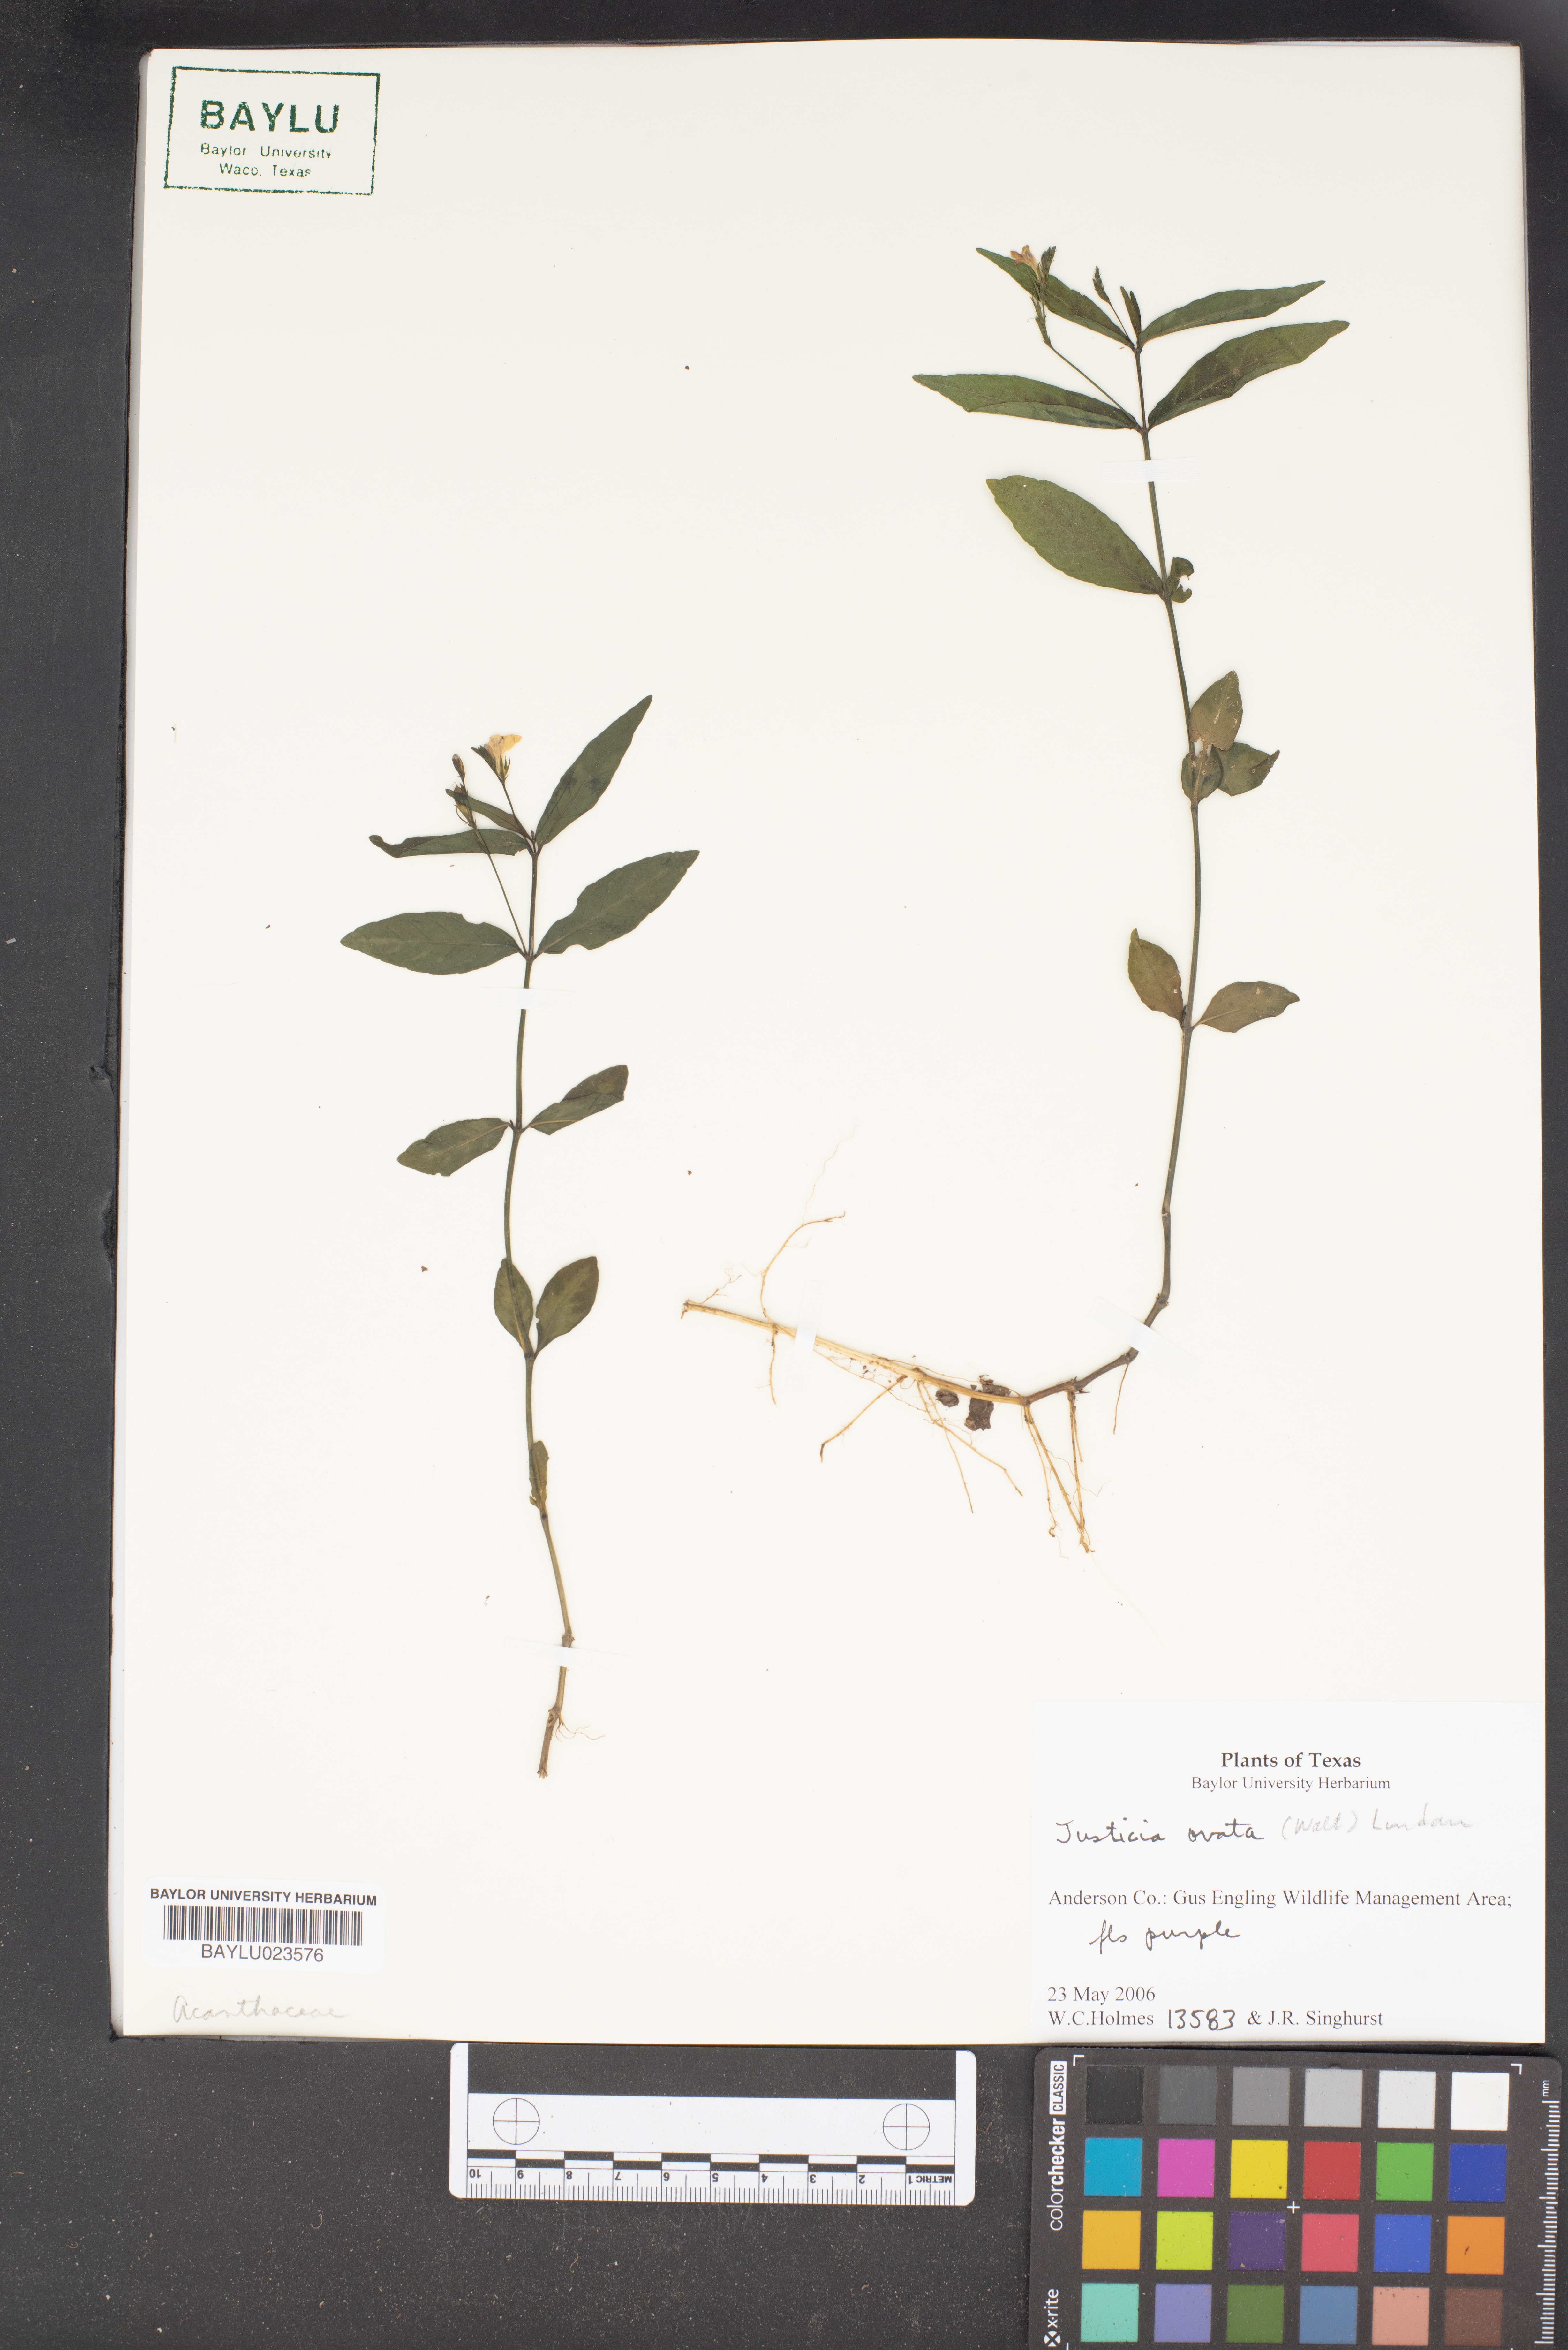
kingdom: Plantae
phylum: Tracheophyta
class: Magnoliopsida
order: Lamiales
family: Acanthaceae
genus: Dianthera
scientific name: Dianthera ovata
